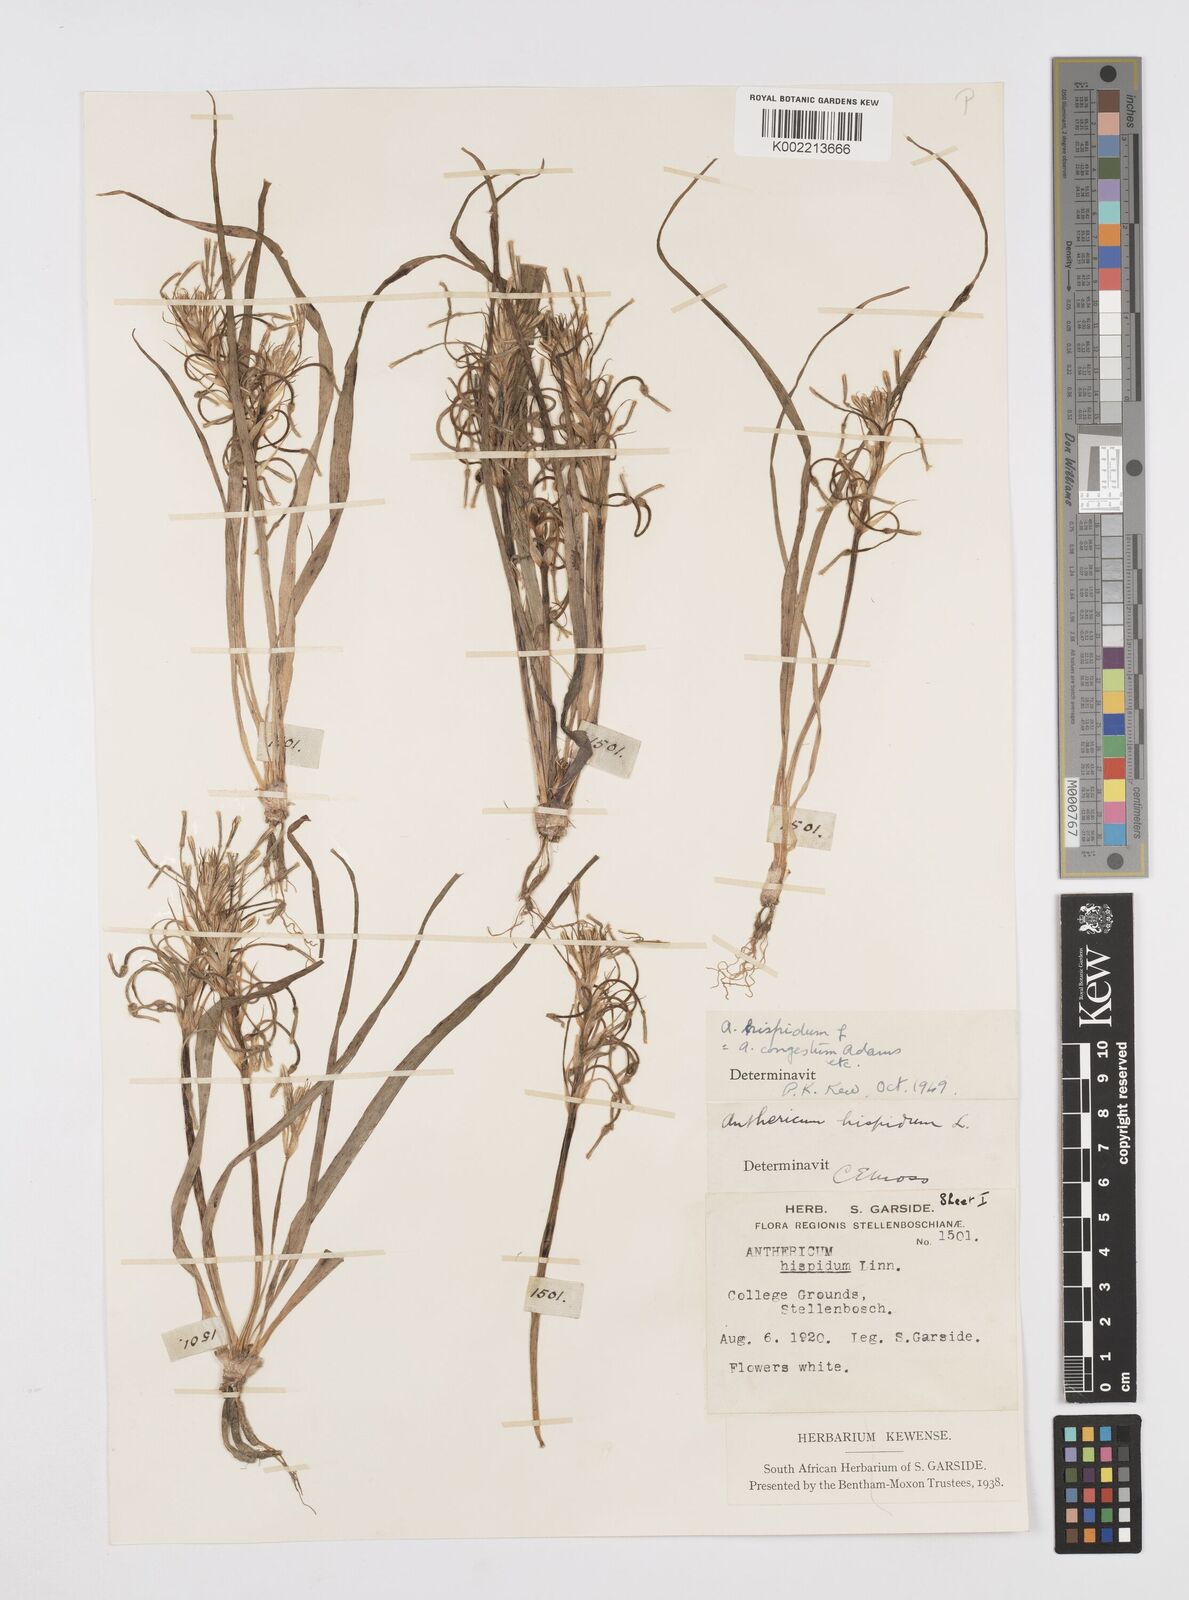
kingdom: Plantae
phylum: Tracheophyta
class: Liliopsida
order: Asparagales
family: Asphodelaceae
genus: Trachyandra
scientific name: Trachyandra hispida
